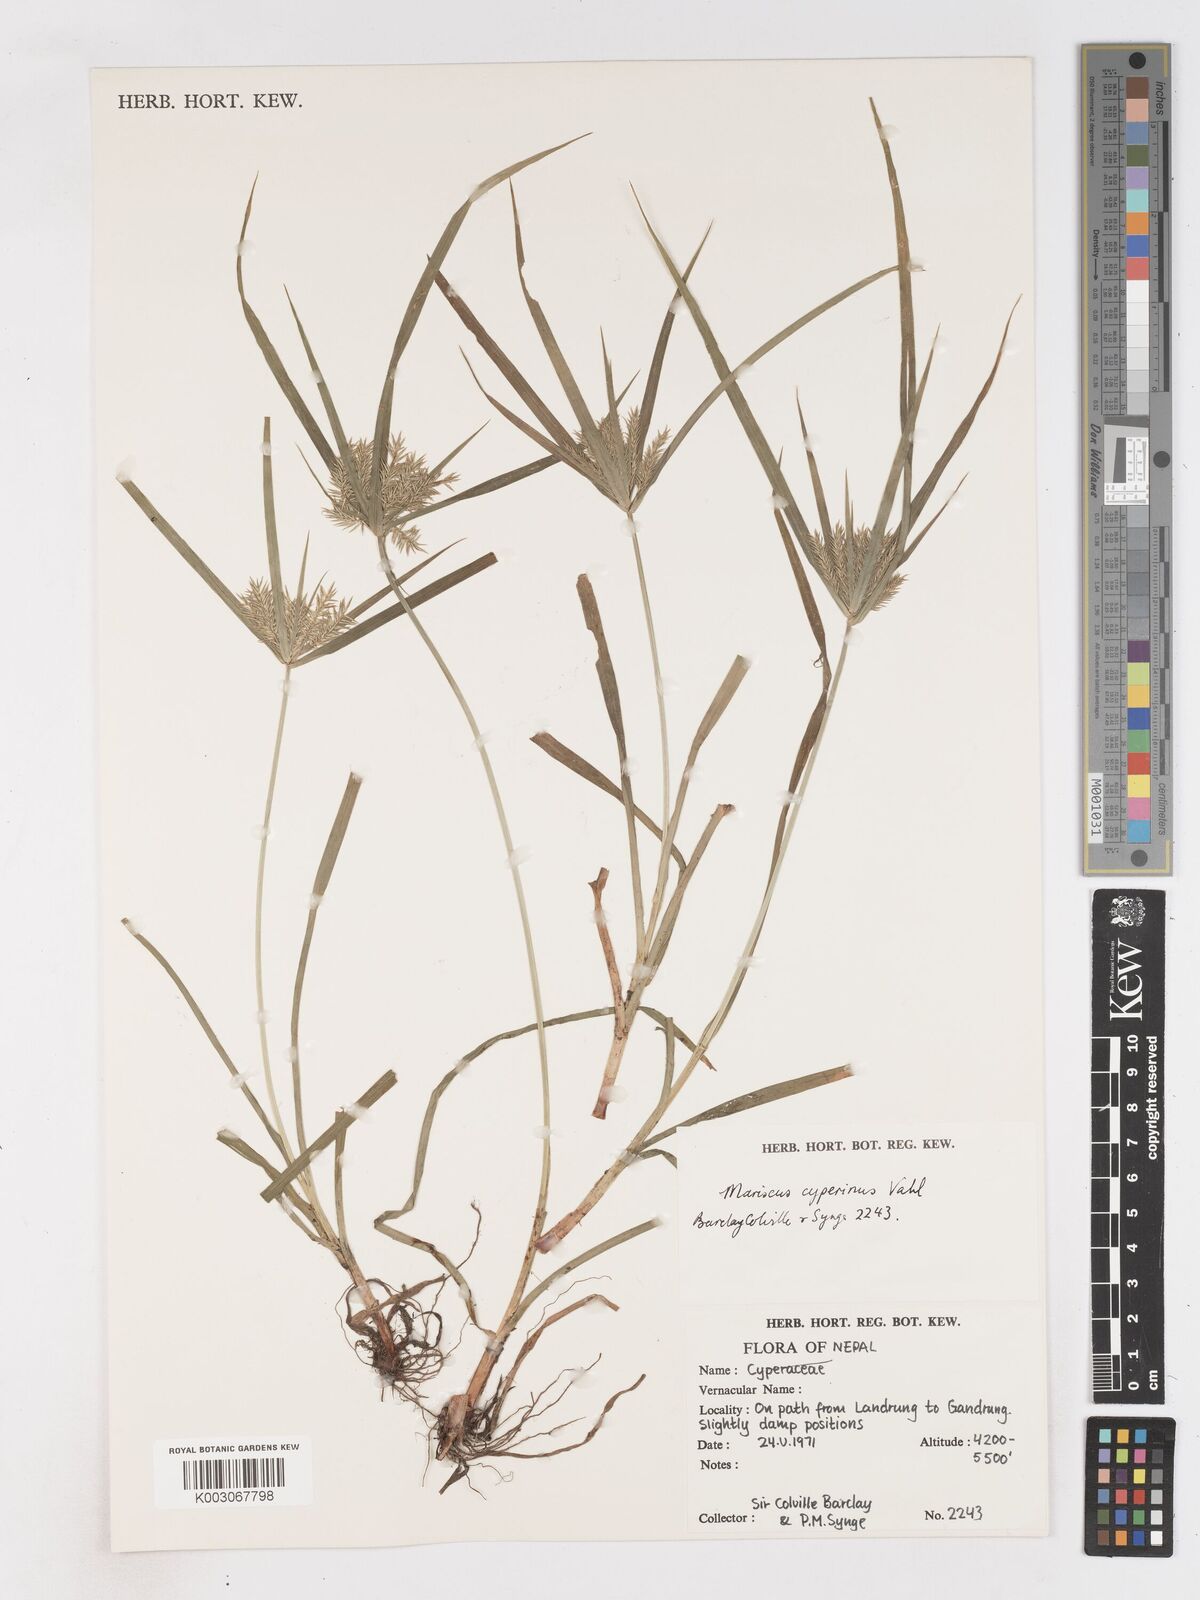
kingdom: Plantae
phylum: Tracheophyta
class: Liliopsida
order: Poales
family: Cyperaceae
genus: Cyperus
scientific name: Cyperus cyperoides
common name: Pacific island flat sedge
